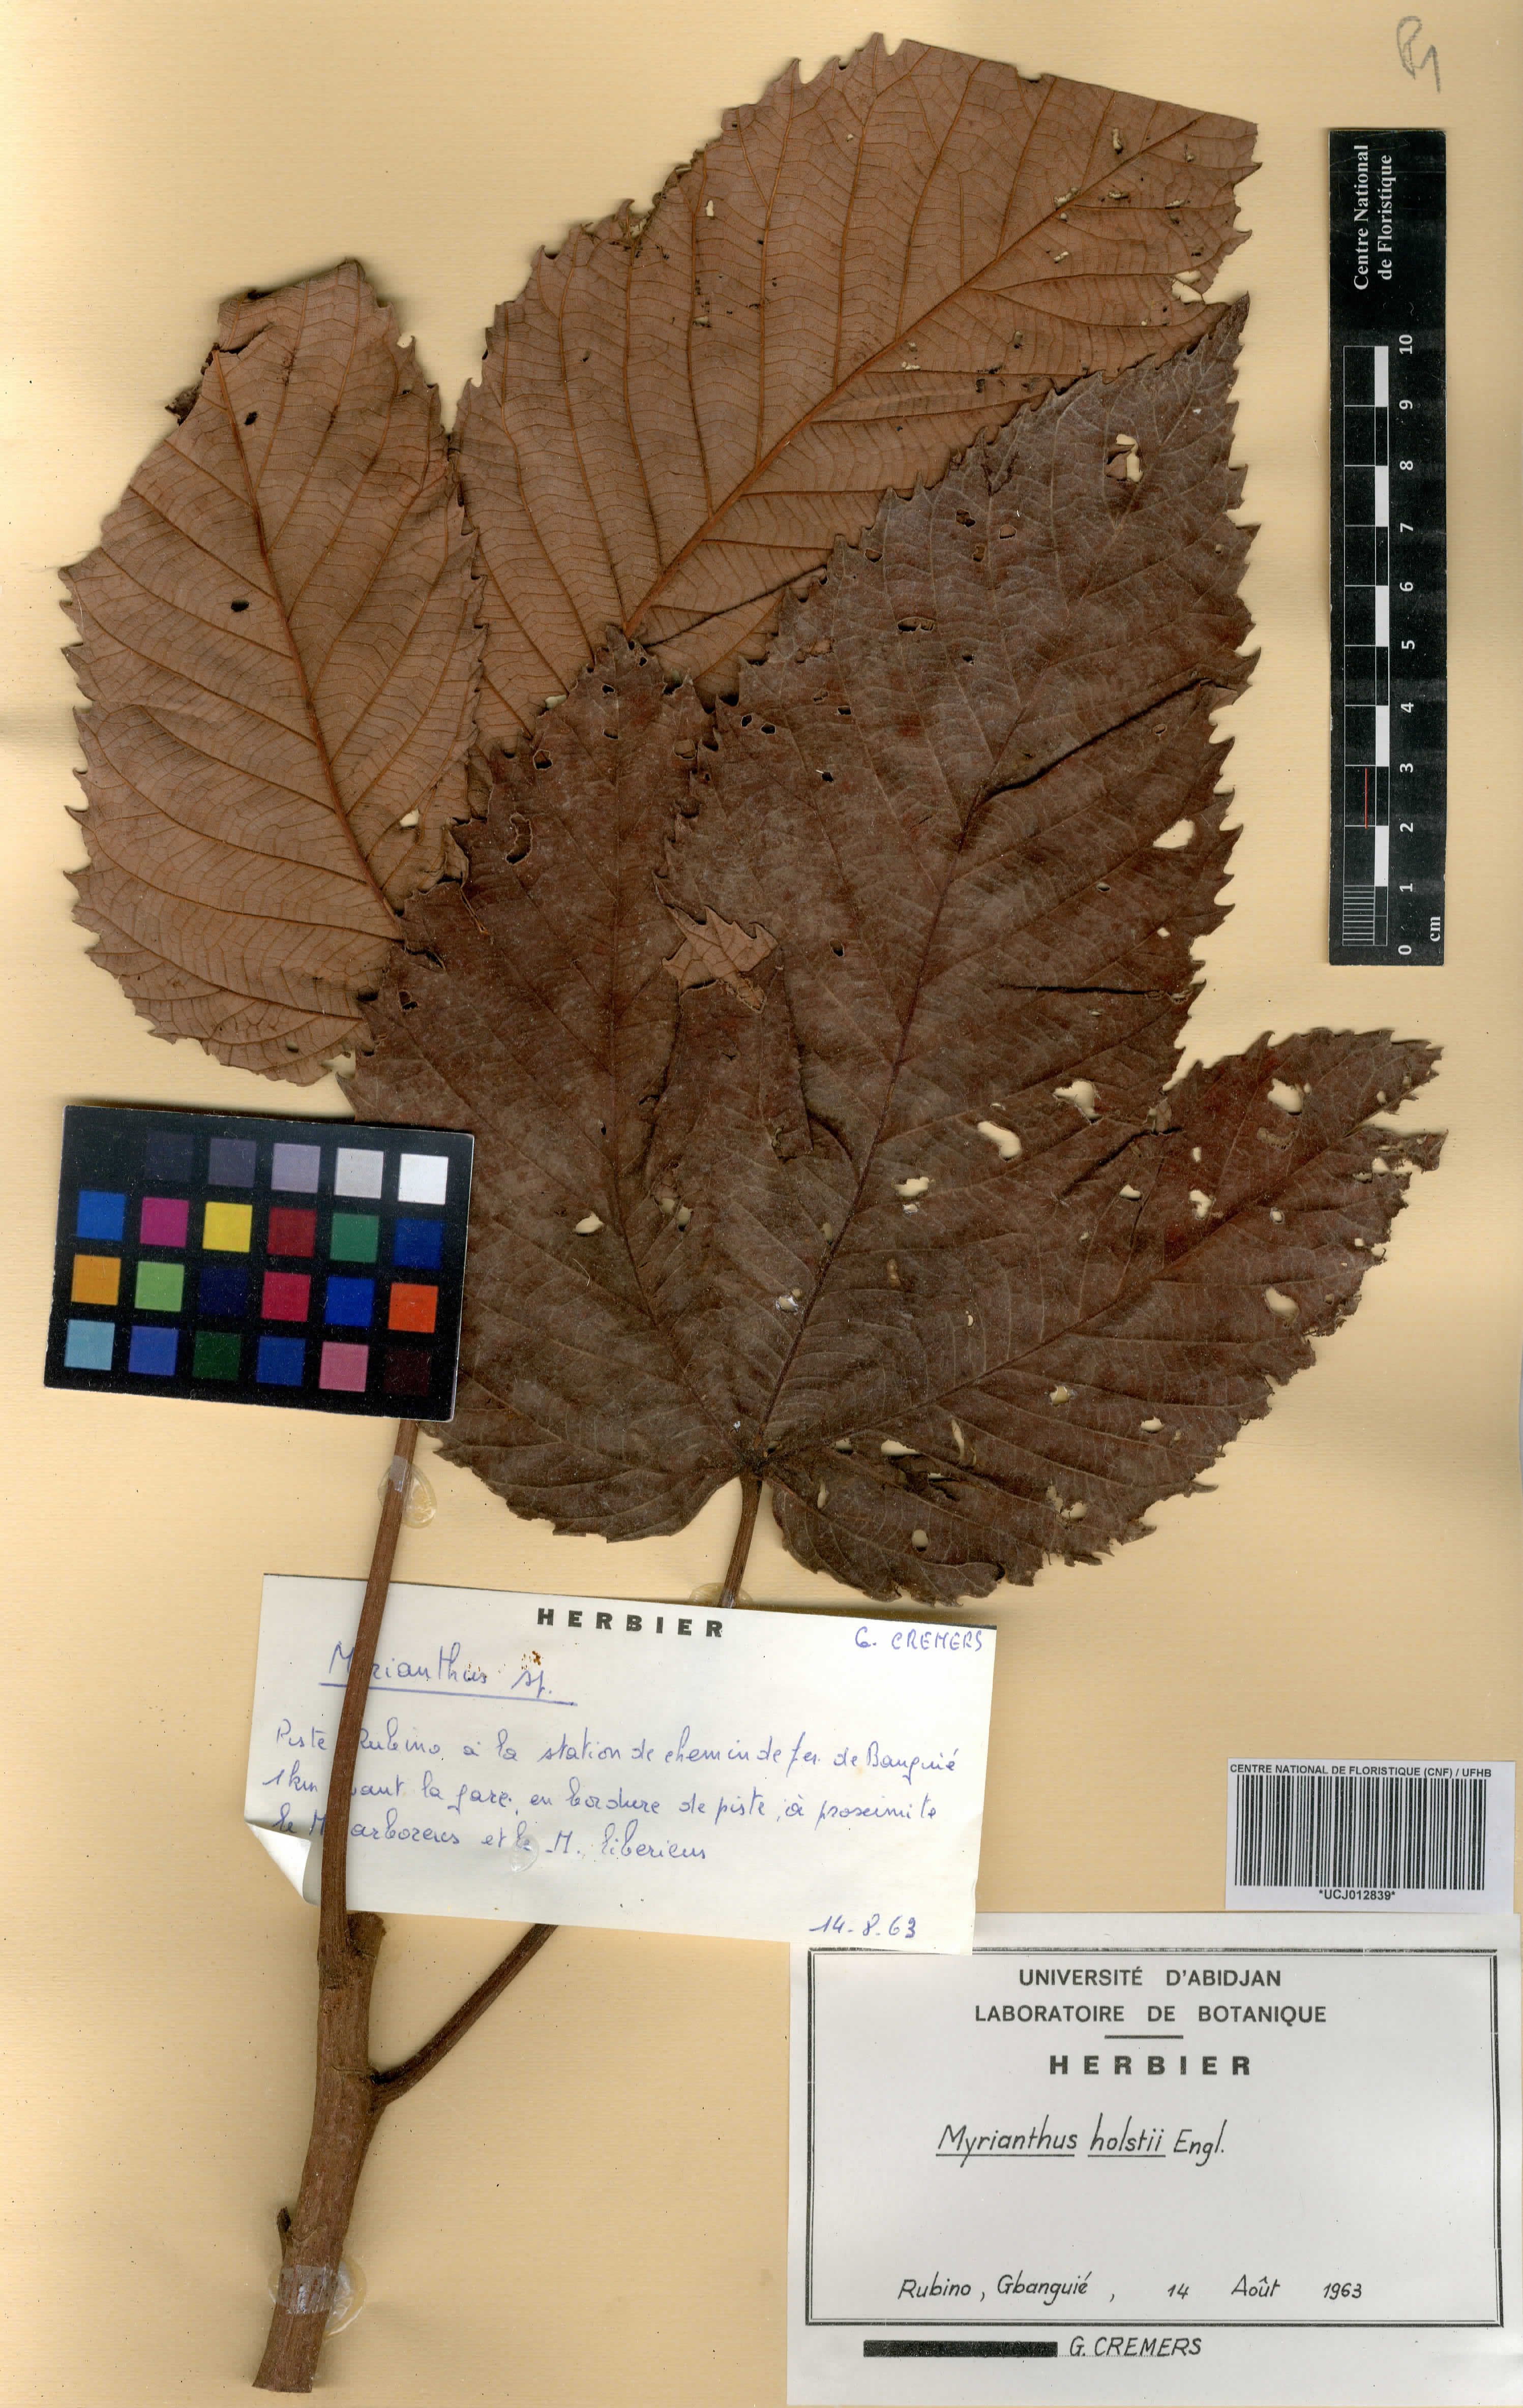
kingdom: Plantae
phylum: Tracheophyta
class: Magnoliopsida
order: Rosales
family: Urticaceae
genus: Myrianthus
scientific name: Myrianthus holstii
